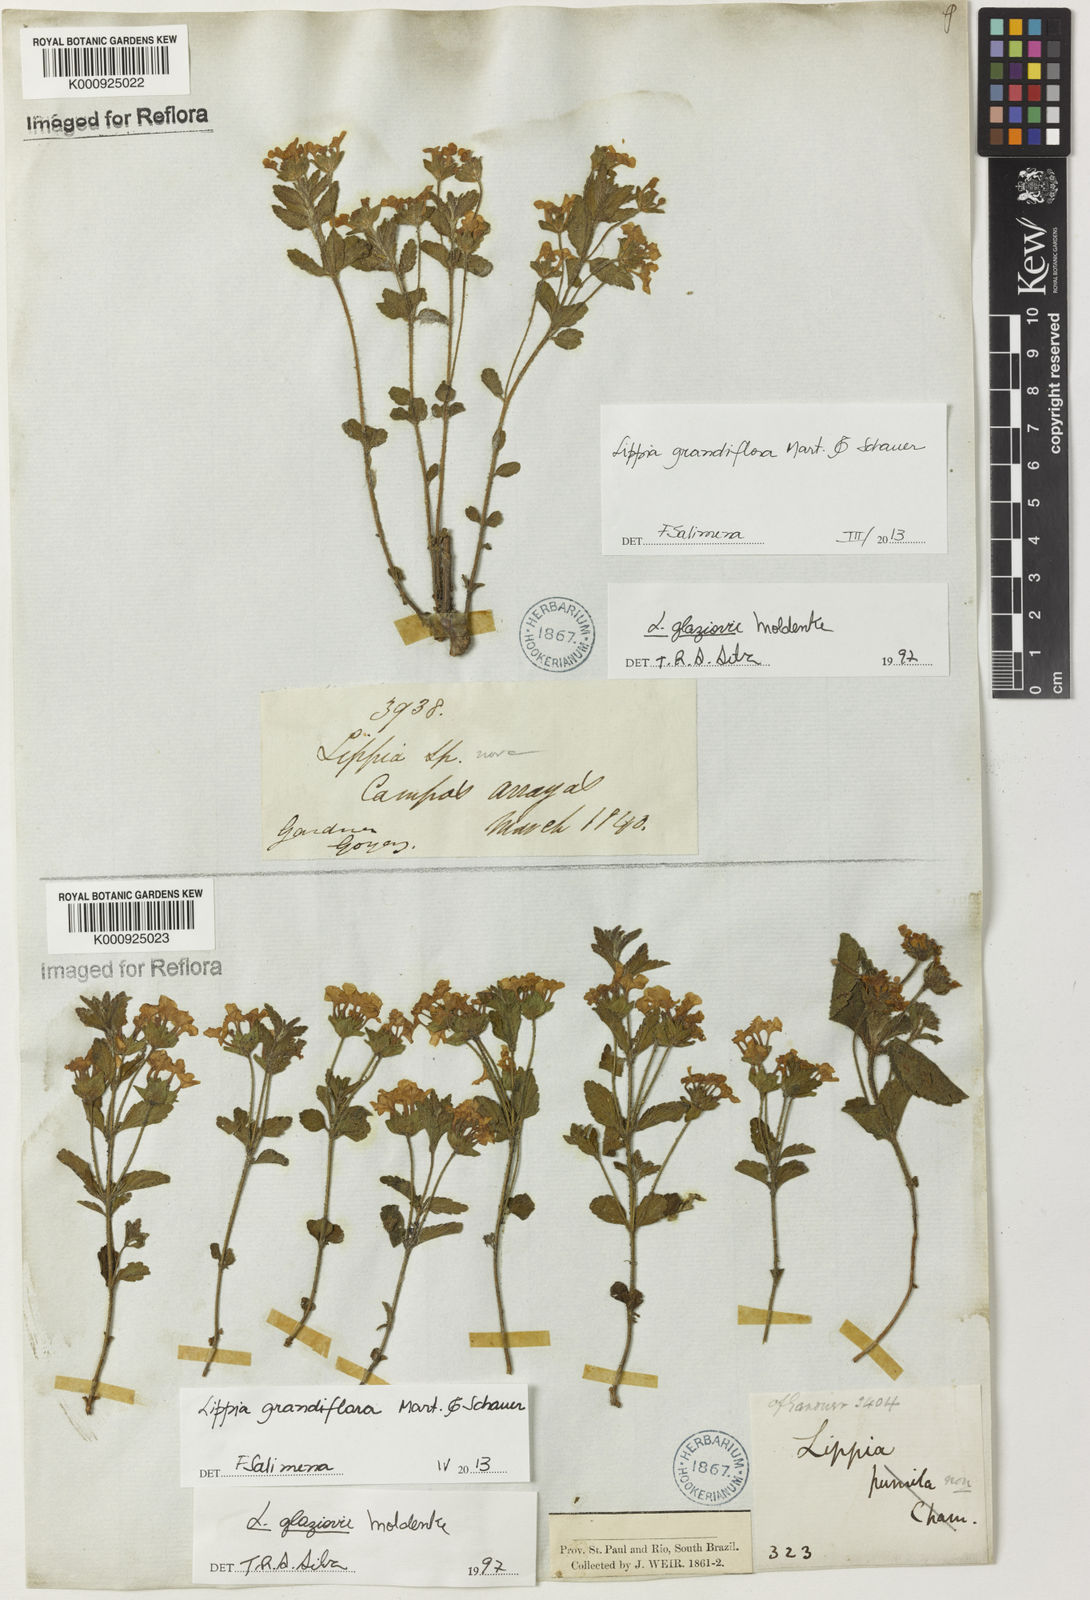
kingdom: Plantae
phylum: Tracheophyta
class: Magnoliopsida
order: Lamiales
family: Verbenaceae
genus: Lippia
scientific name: Lippia grandiflora
